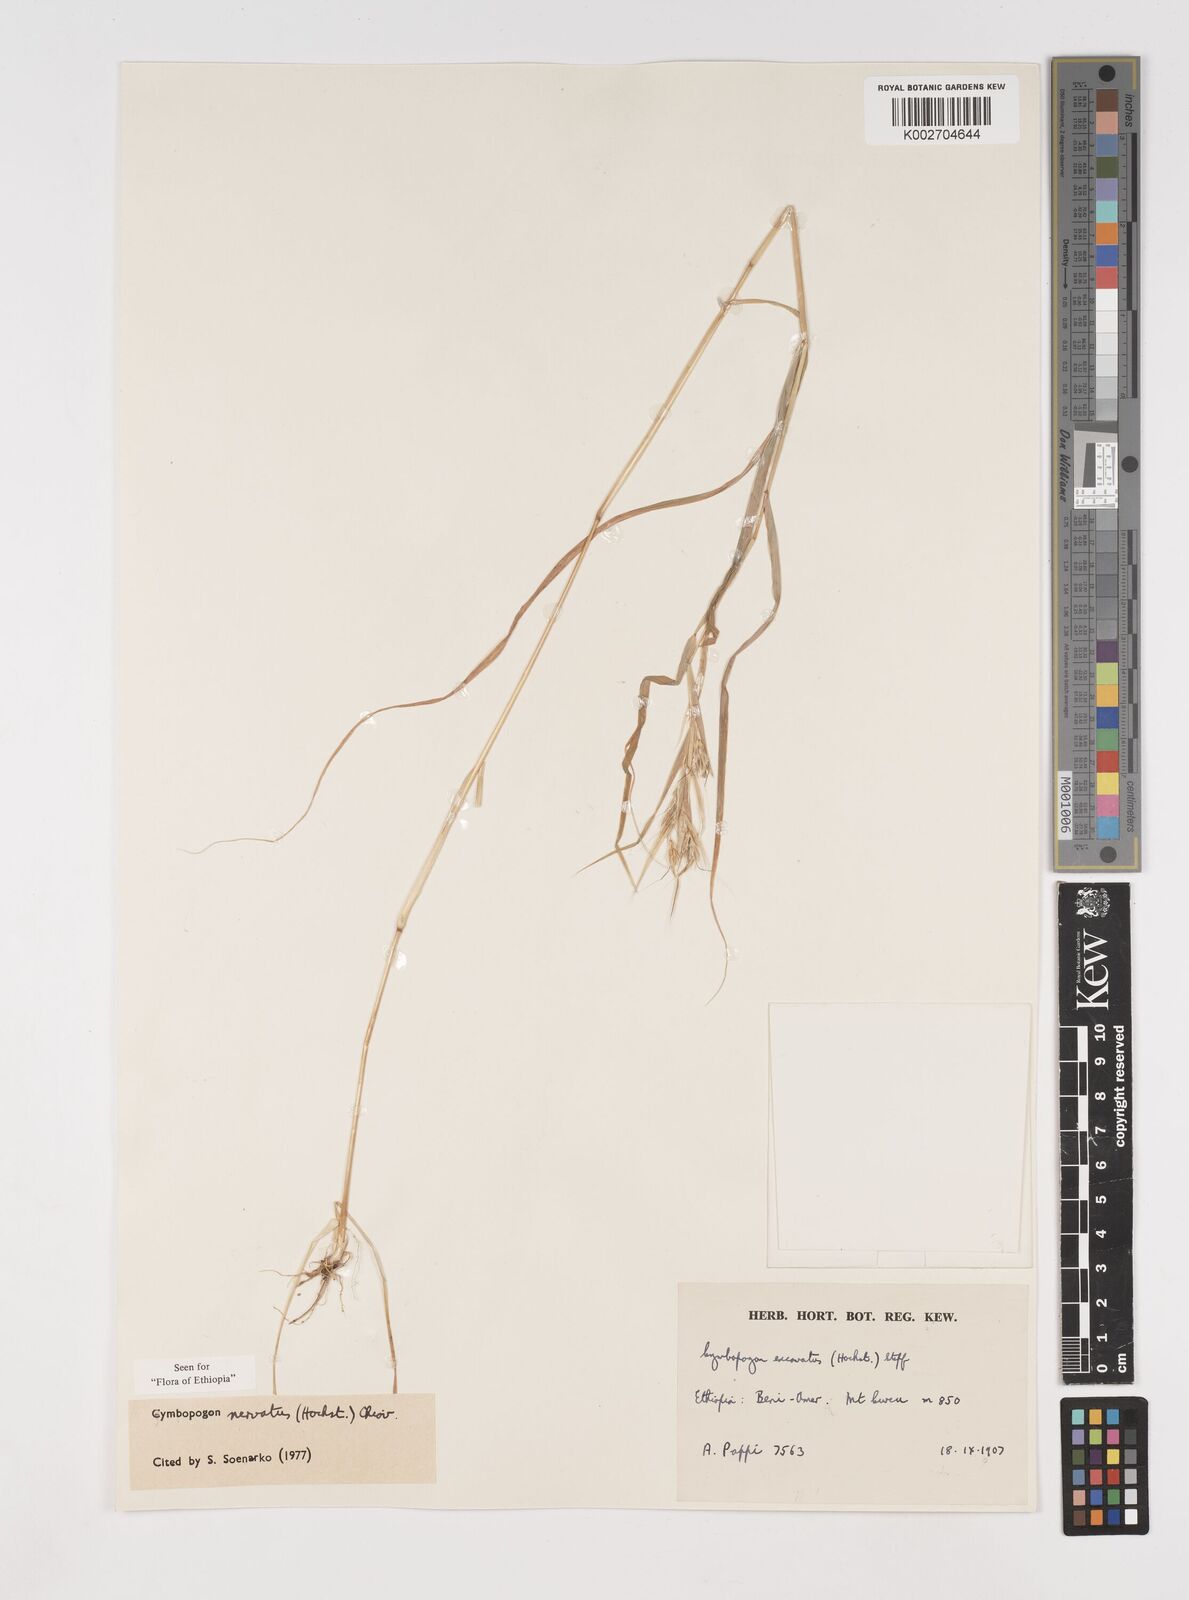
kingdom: Plantae
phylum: Tracheophyta
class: Liliopsida
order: Poales
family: Poaceae
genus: Cymbopogon
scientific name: Cymbopogon nervatus
